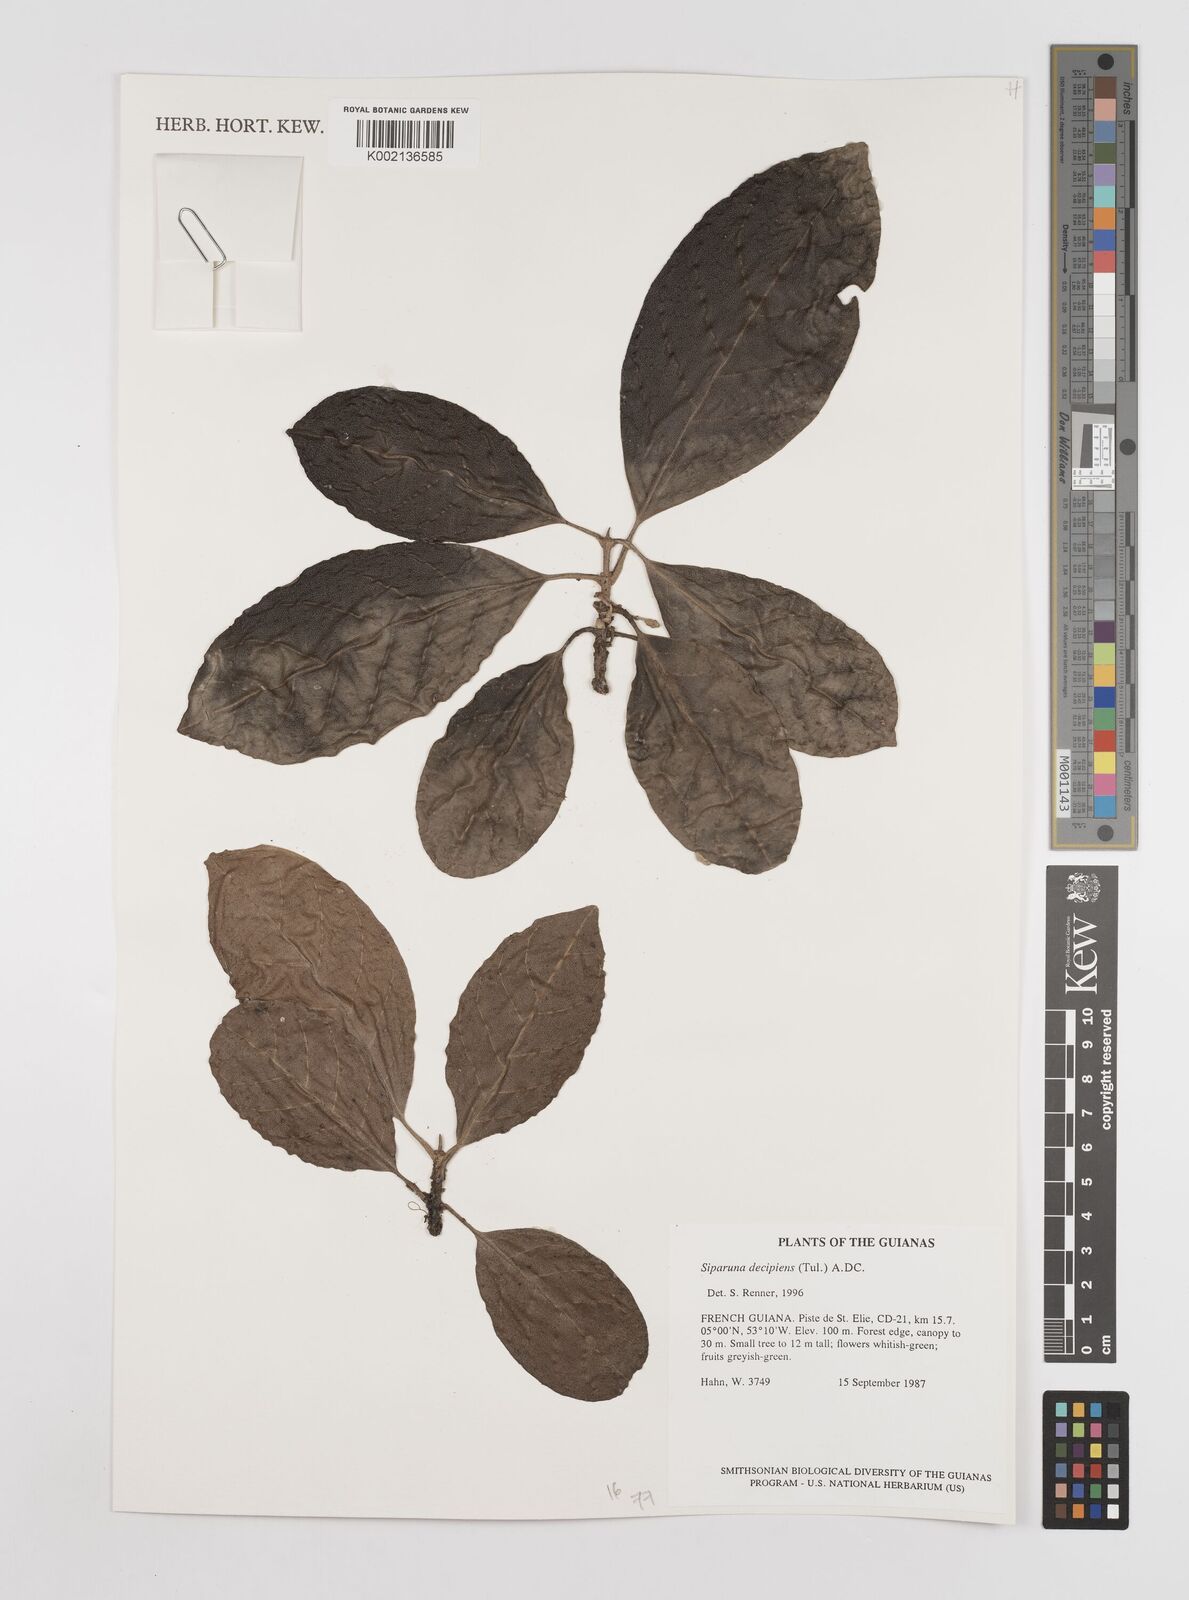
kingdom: Plantae
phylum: Tracheophyta
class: Magnoliopsida
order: Laurales
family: Siparunaceae
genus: Siparuna
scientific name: Siparuna decipiens
